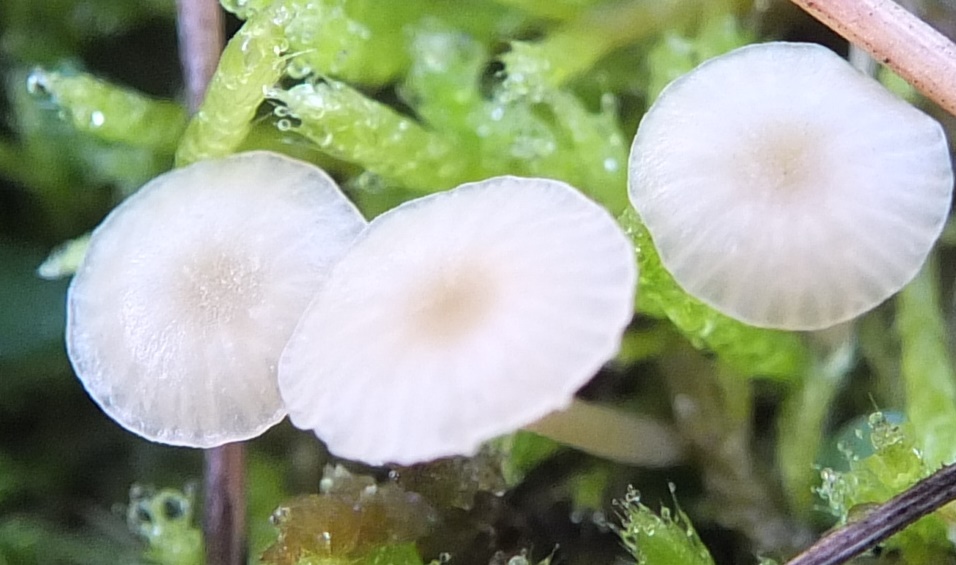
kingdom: Fungi
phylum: Basidiomycota
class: Agaricomycetes
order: Hymenochaetales
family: Rickenellaceae
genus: Rickenella
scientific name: Rickenella fibula
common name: orange mosnavlehat
